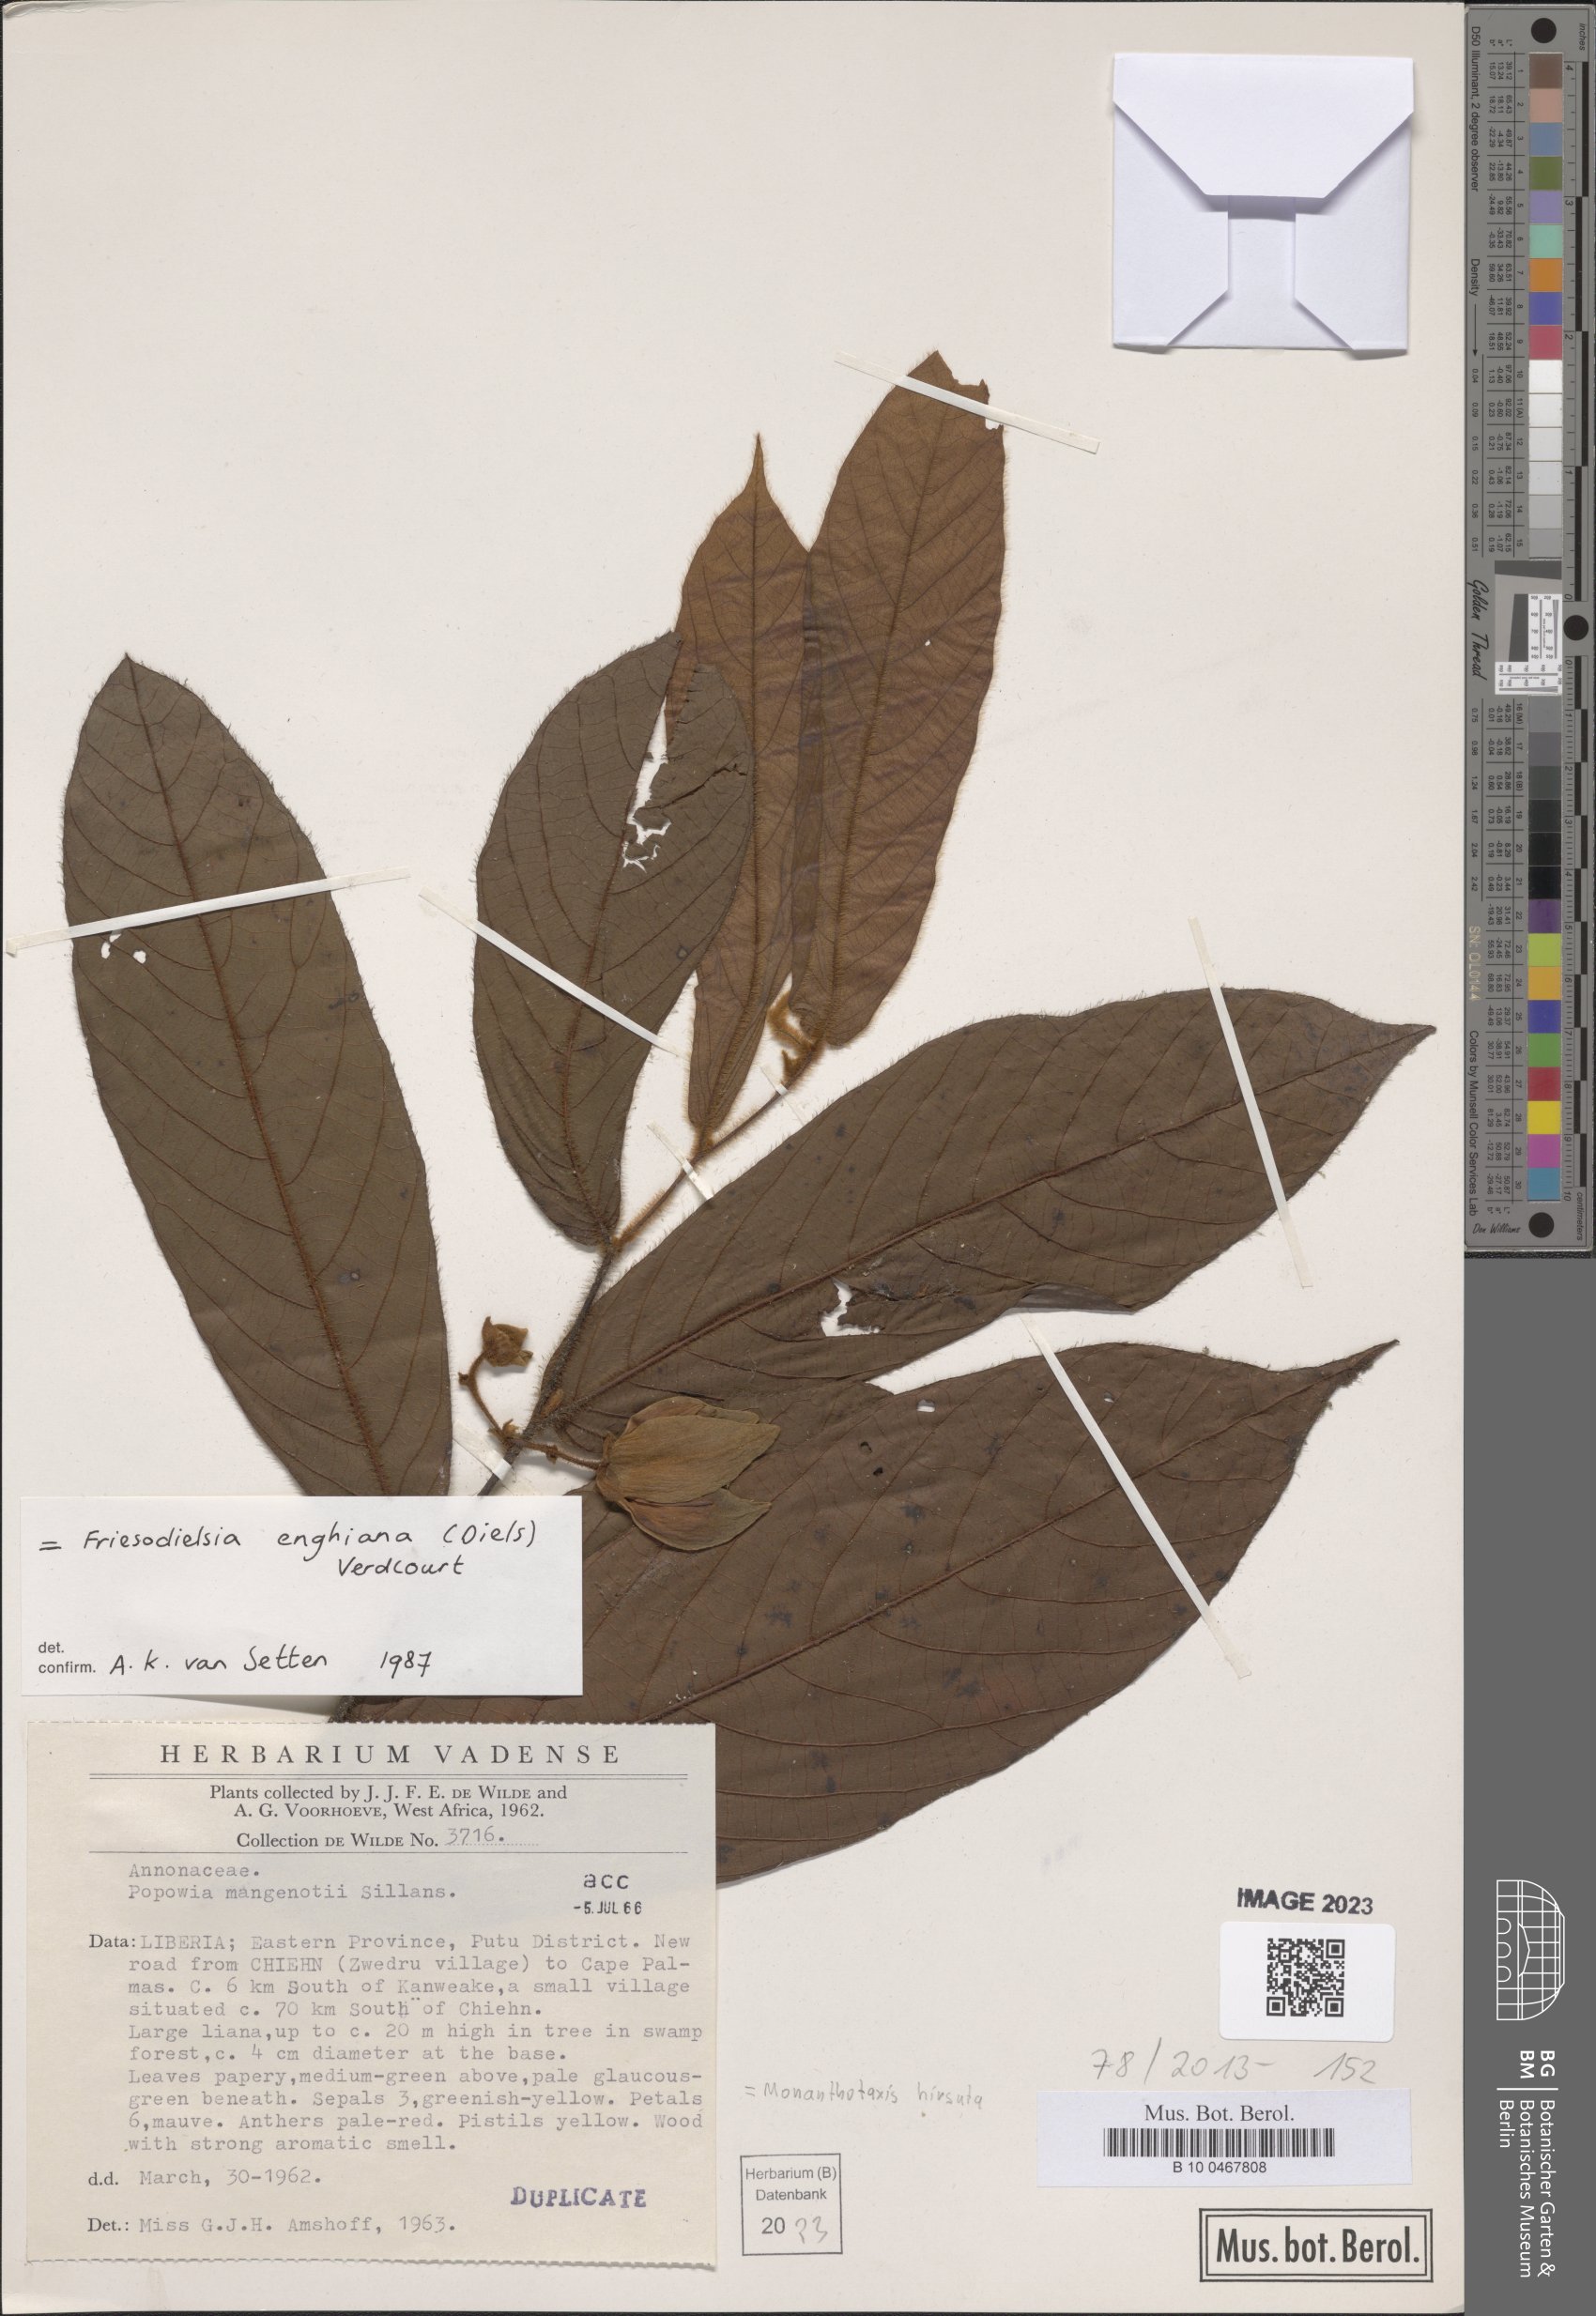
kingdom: Plantae
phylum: Tracheophyta
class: Magnoliopsida
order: Magnoliales
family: Annonaceae
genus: Friesodielsia
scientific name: Friesodielsia hirsuta
